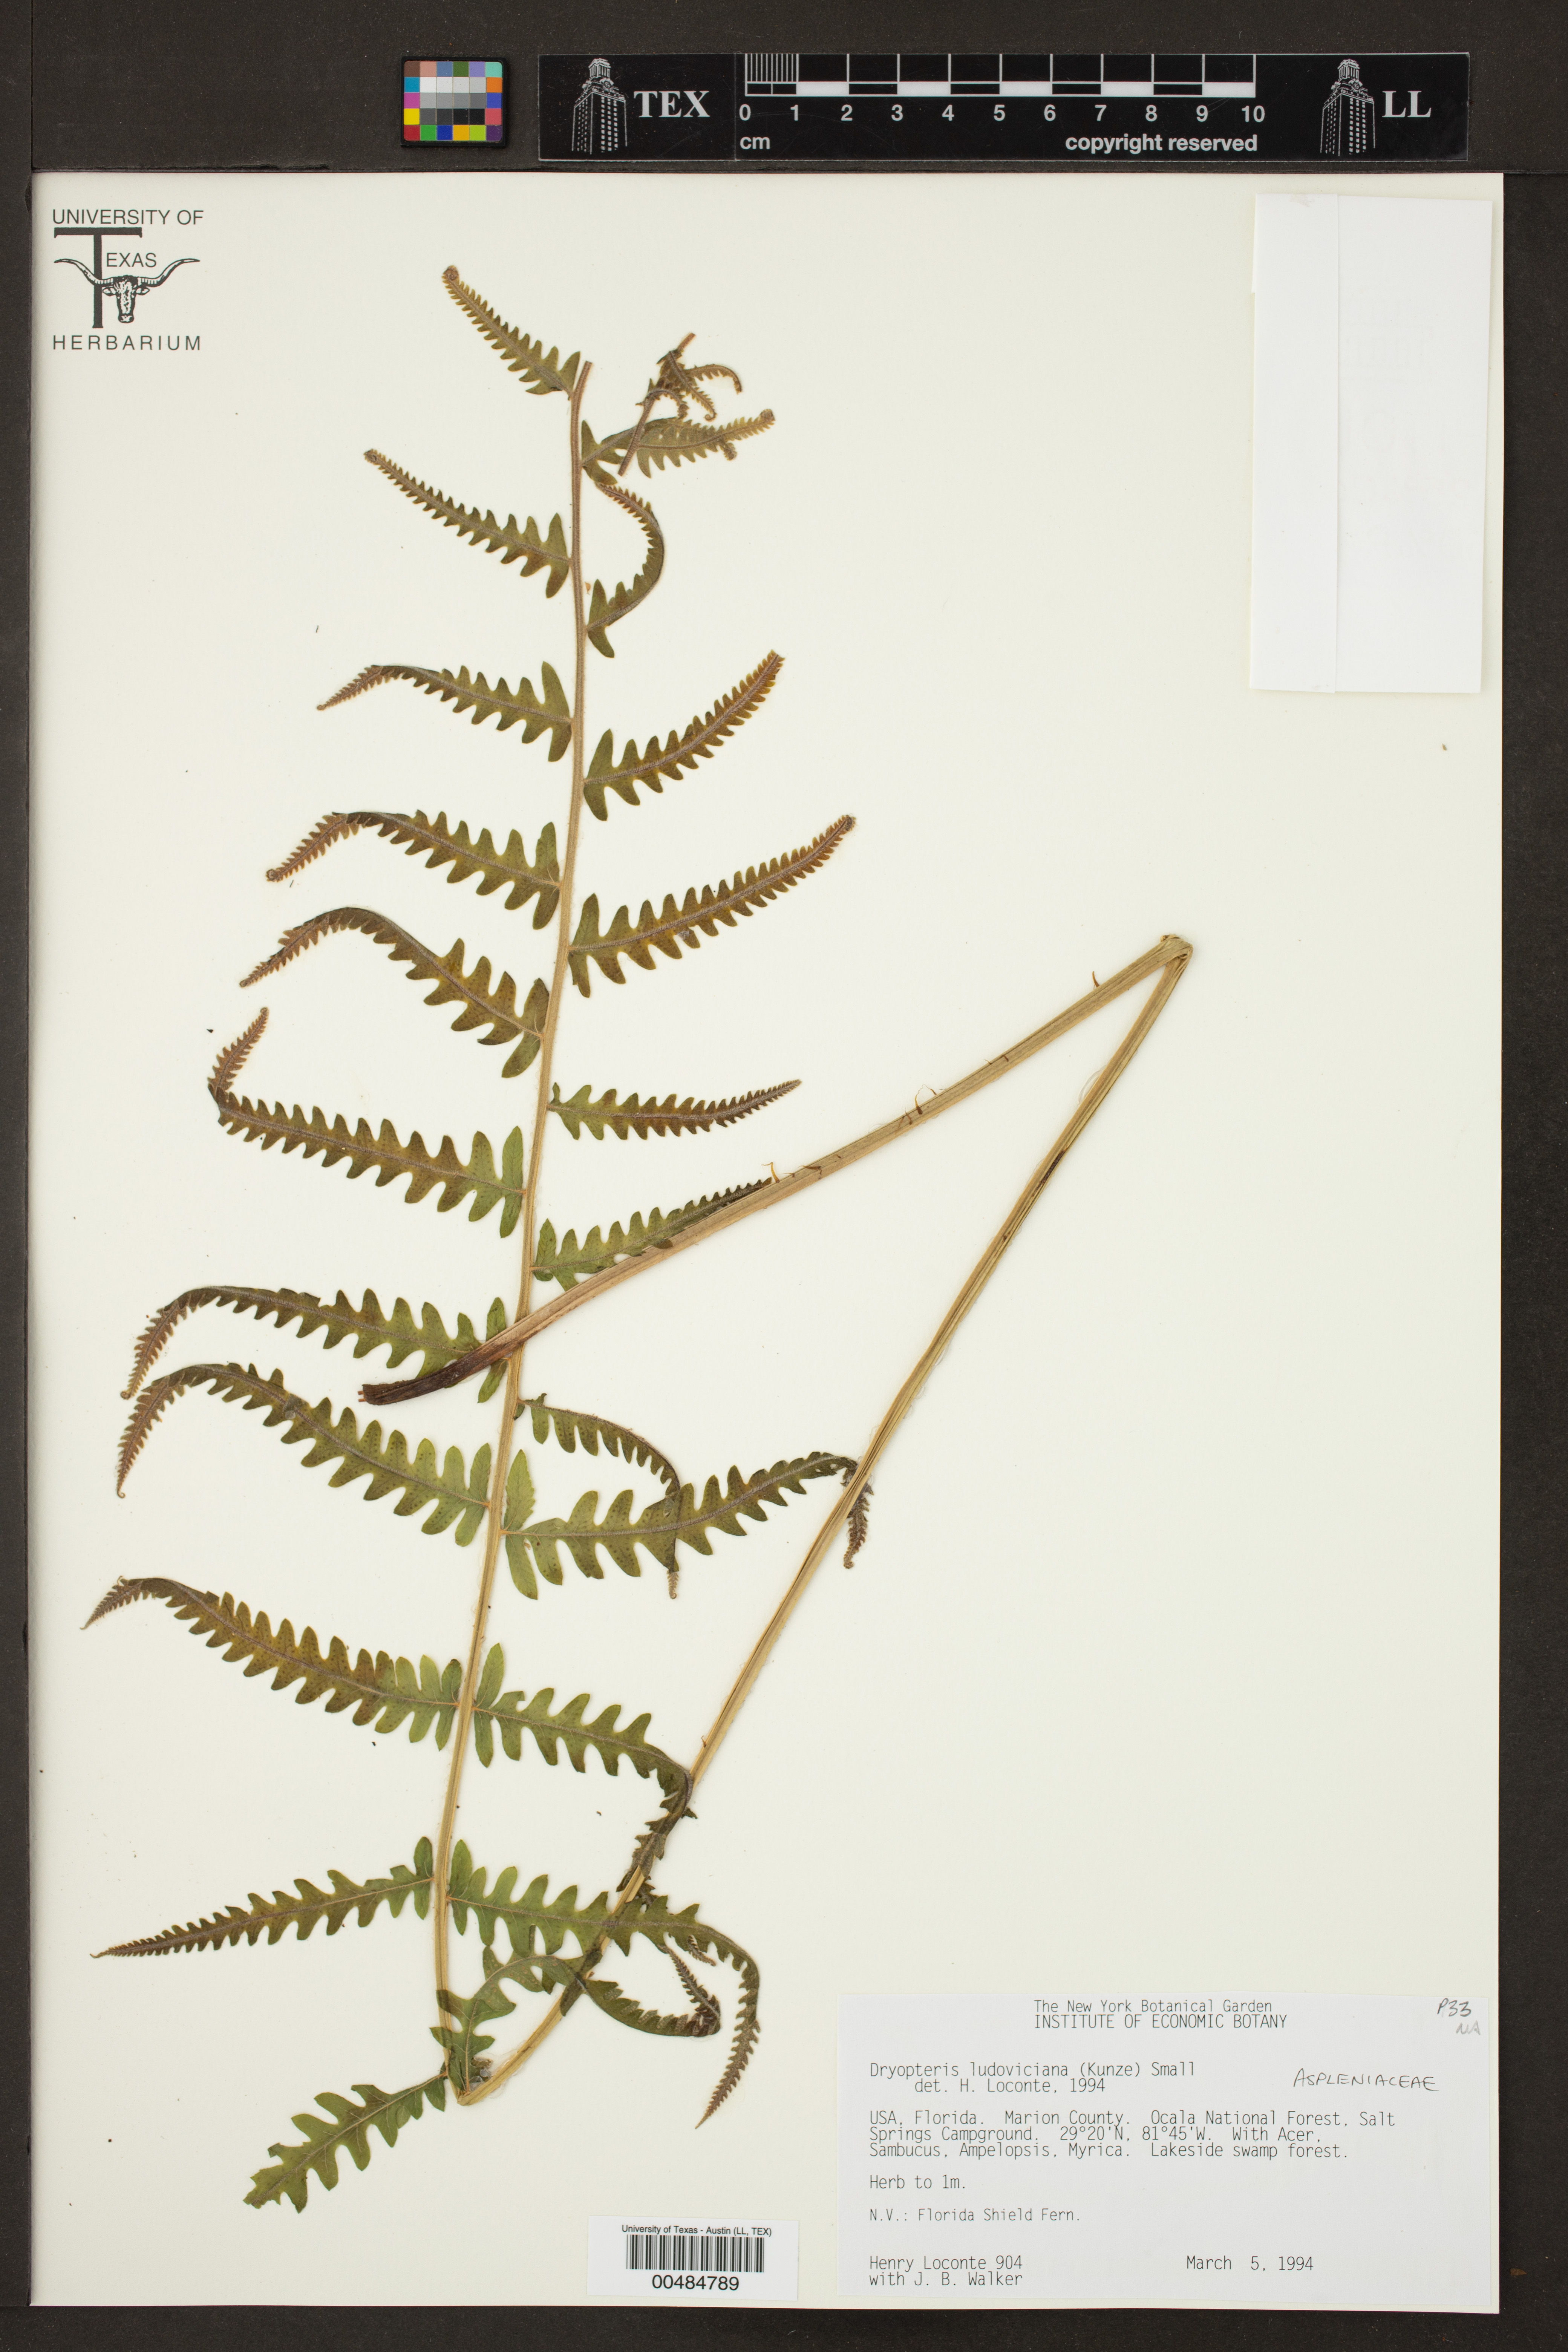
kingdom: Plantae
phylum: Tracheophyta
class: Polypodiopsida
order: Polypodiales
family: Dryopteridaceae
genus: Dryopteris
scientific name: Dryopteris ludoviciana
